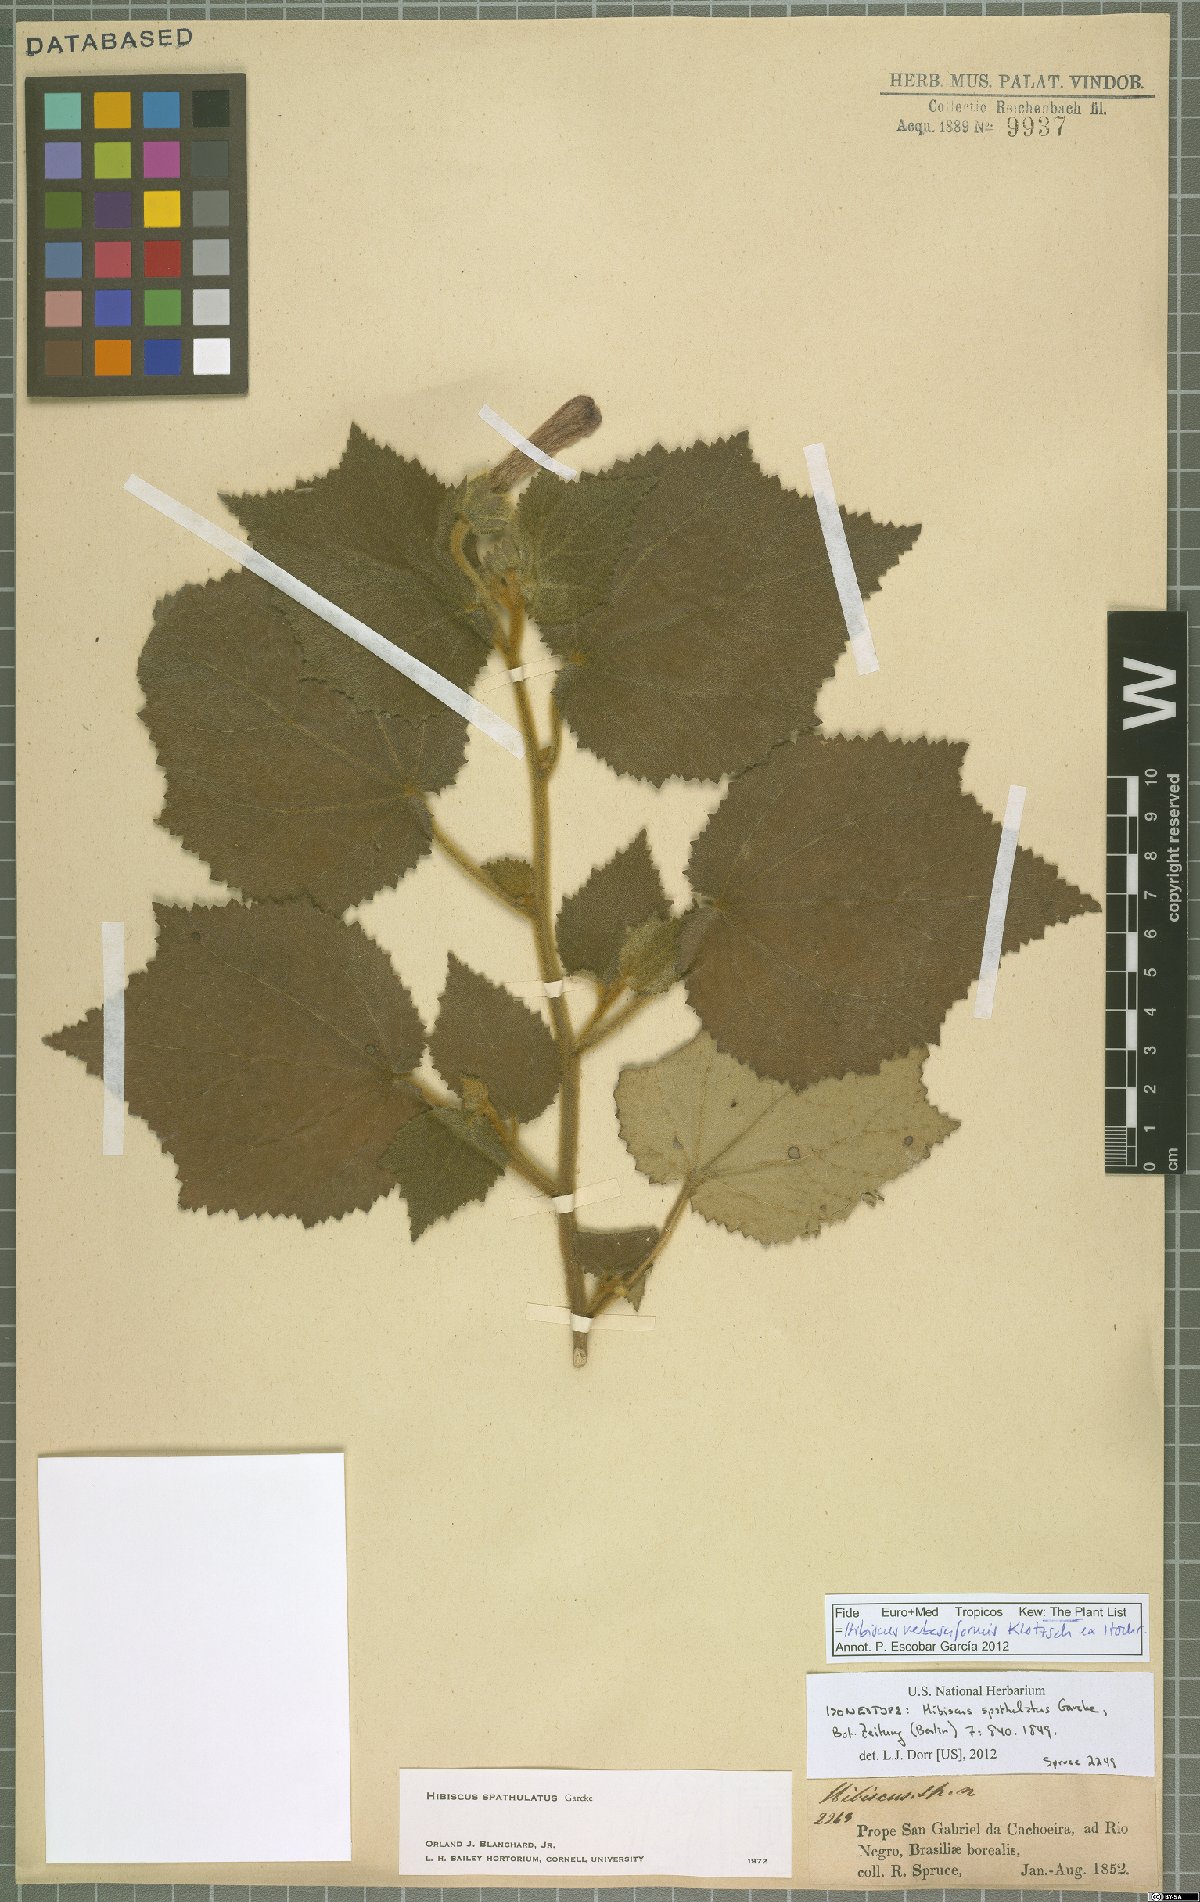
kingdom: Plantae
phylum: Tracheophyta
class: Magnoliopsida
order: Malvales
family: Malvaceae
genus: Hibiscus
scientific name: Hibiscus verbasciformis
